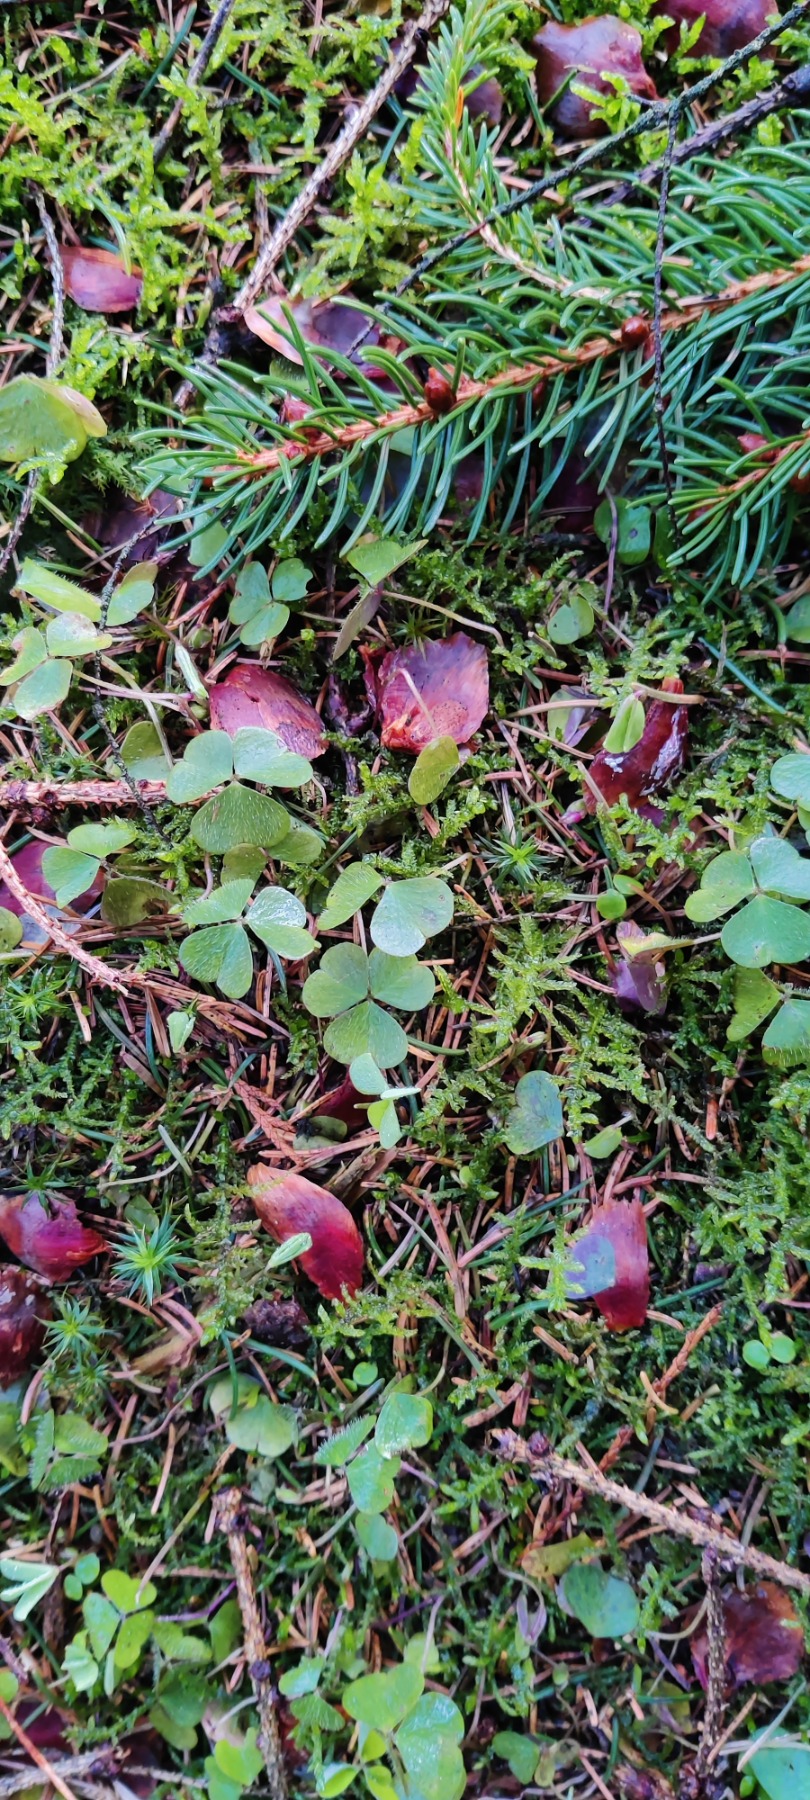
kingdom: Plantae
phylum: Tracheophyta
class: Magnoliopsida
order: Oxalidales
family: Oxalidaceae
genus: Oxalis
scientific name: Oxalis acetosella
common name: Skovsyre
